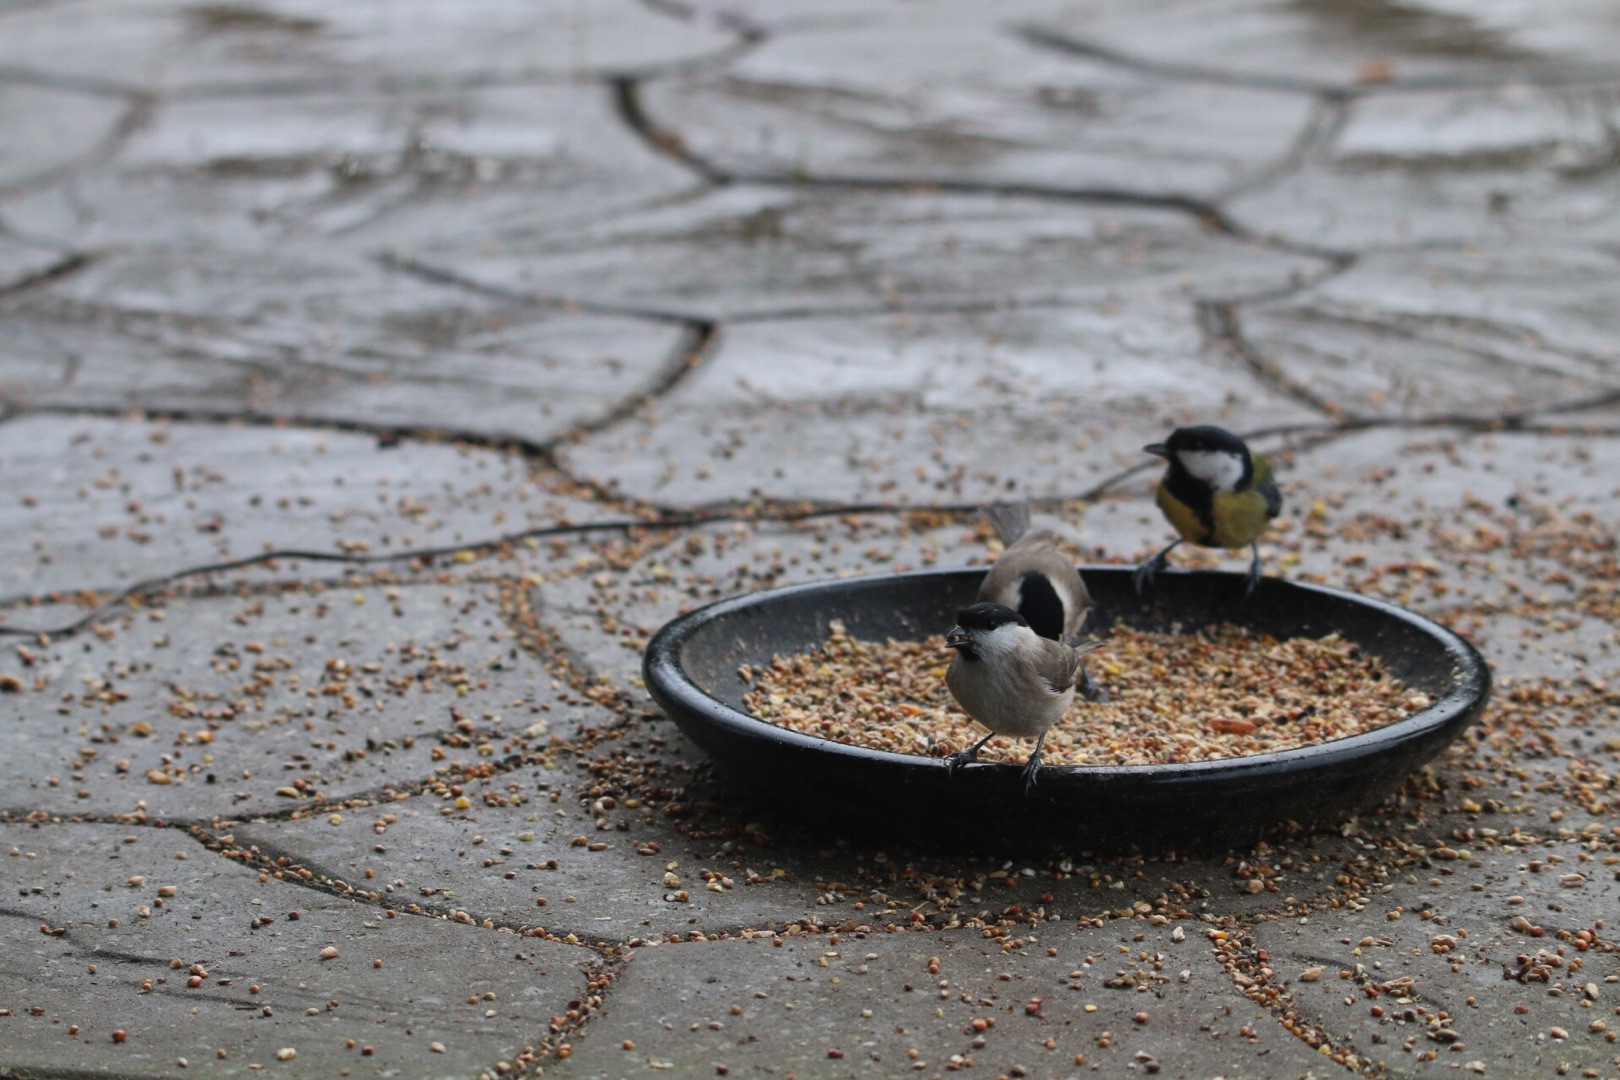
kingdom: Animalia
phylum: Chordata
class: Aves
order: Passeriformes
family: Paridae
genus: Poecile
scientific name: Poecile palustris
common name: Sumpmejse
